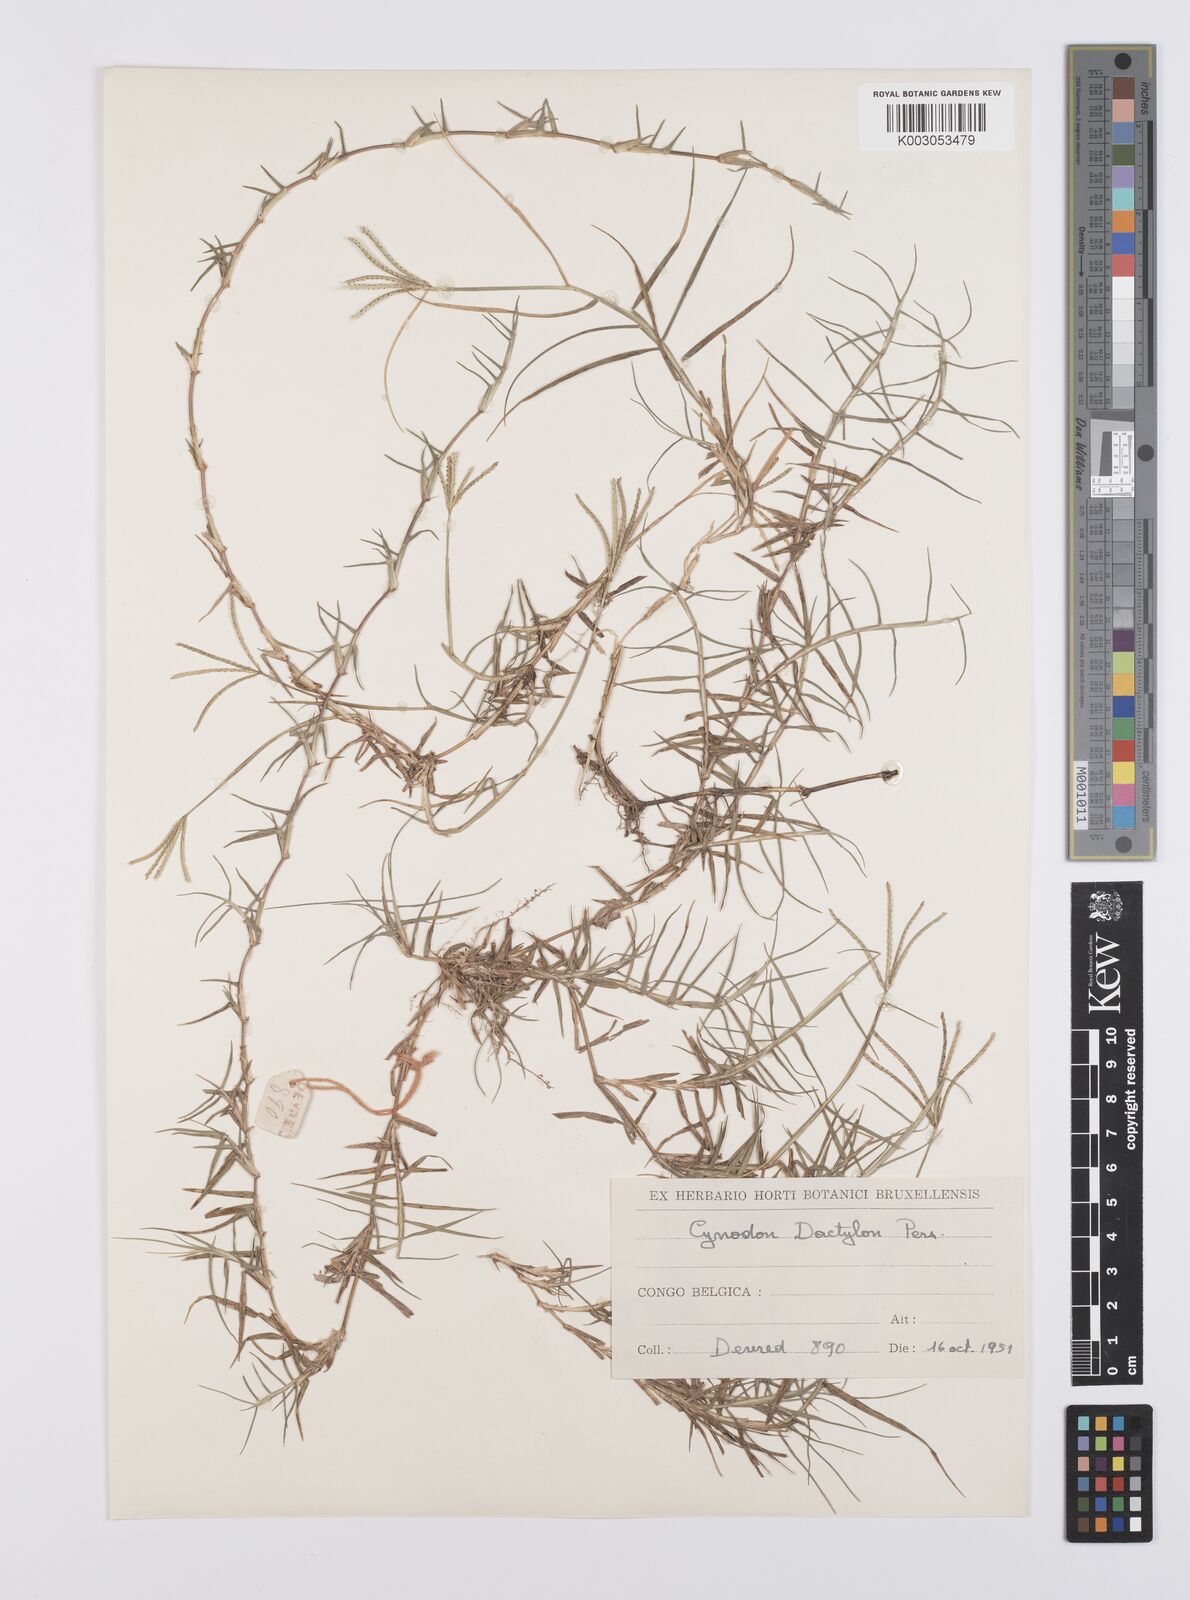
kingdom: Plantae
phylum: Tracheophyta
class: Liliopsida
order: Poales
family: Poaceae
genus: Cynodon
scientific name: Cynodon dactylon
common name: Bermuda grass
